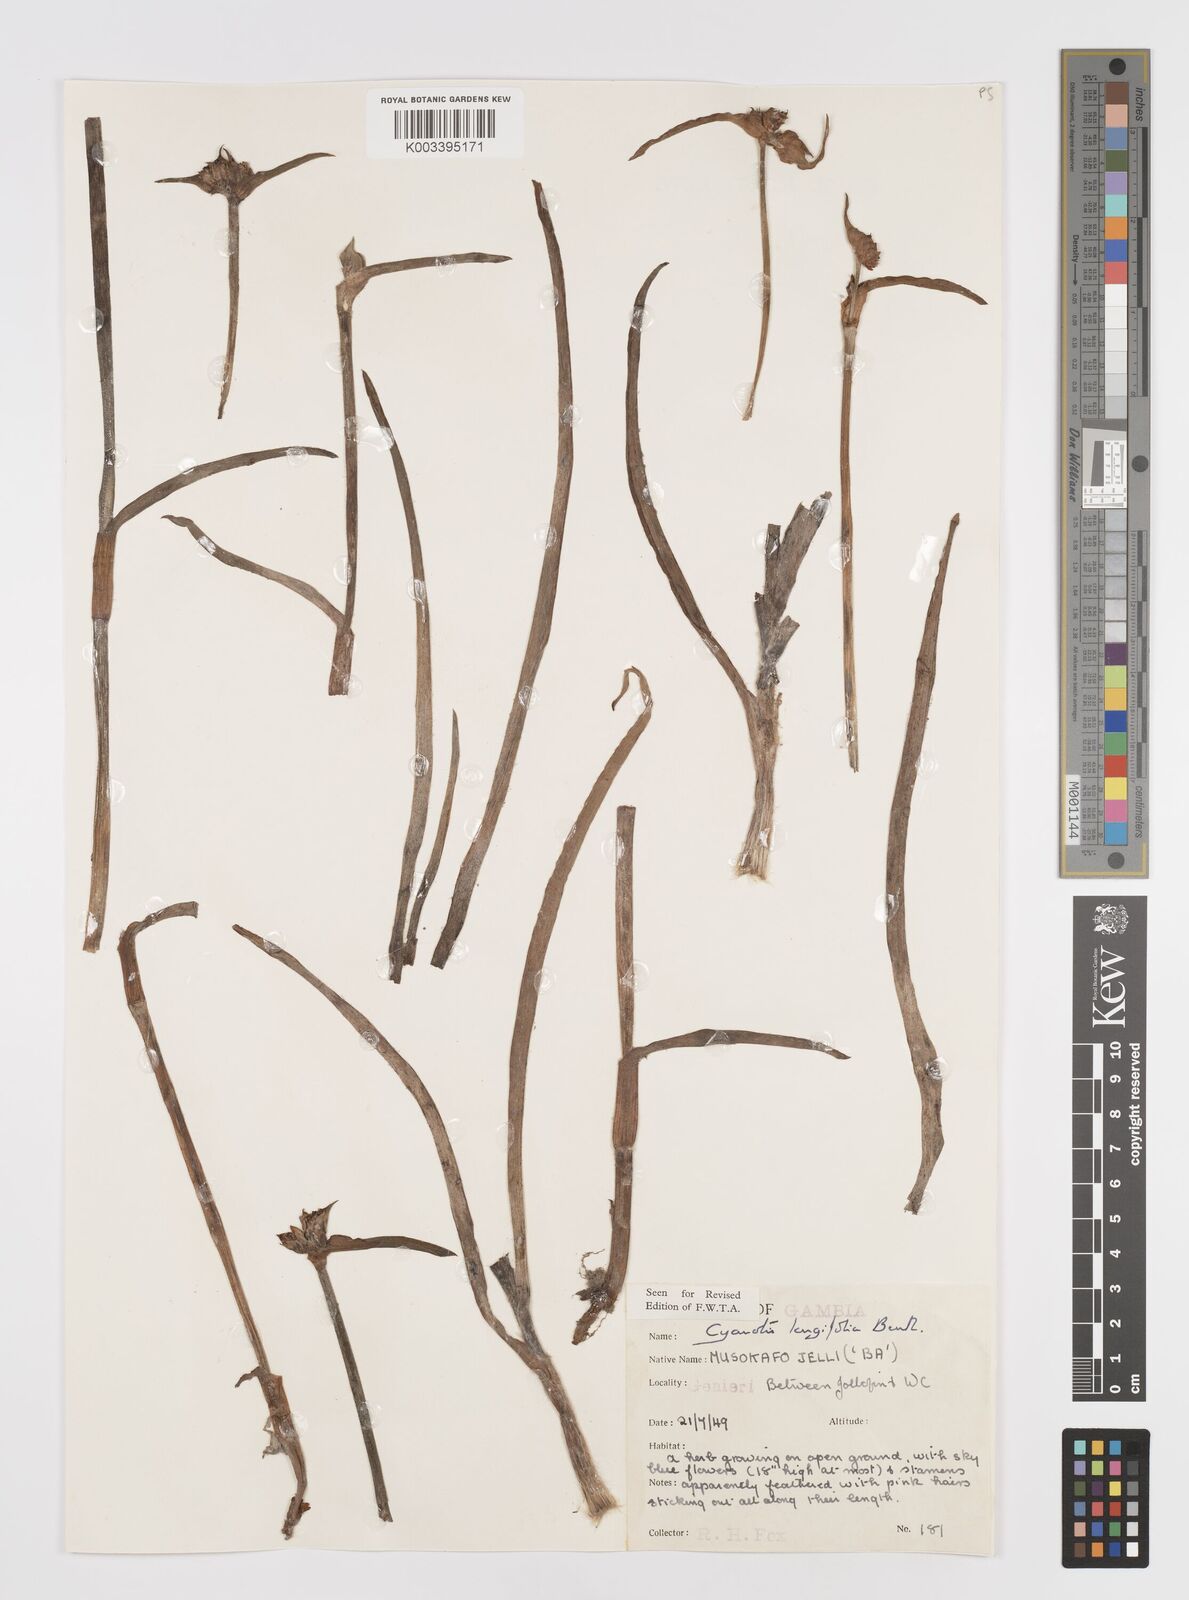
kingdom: Plantae
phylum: Tracheophyta
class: Liliopsida
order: Commelinales
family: Commelinaceae
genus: Cyanotis
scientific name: Cyanotis
